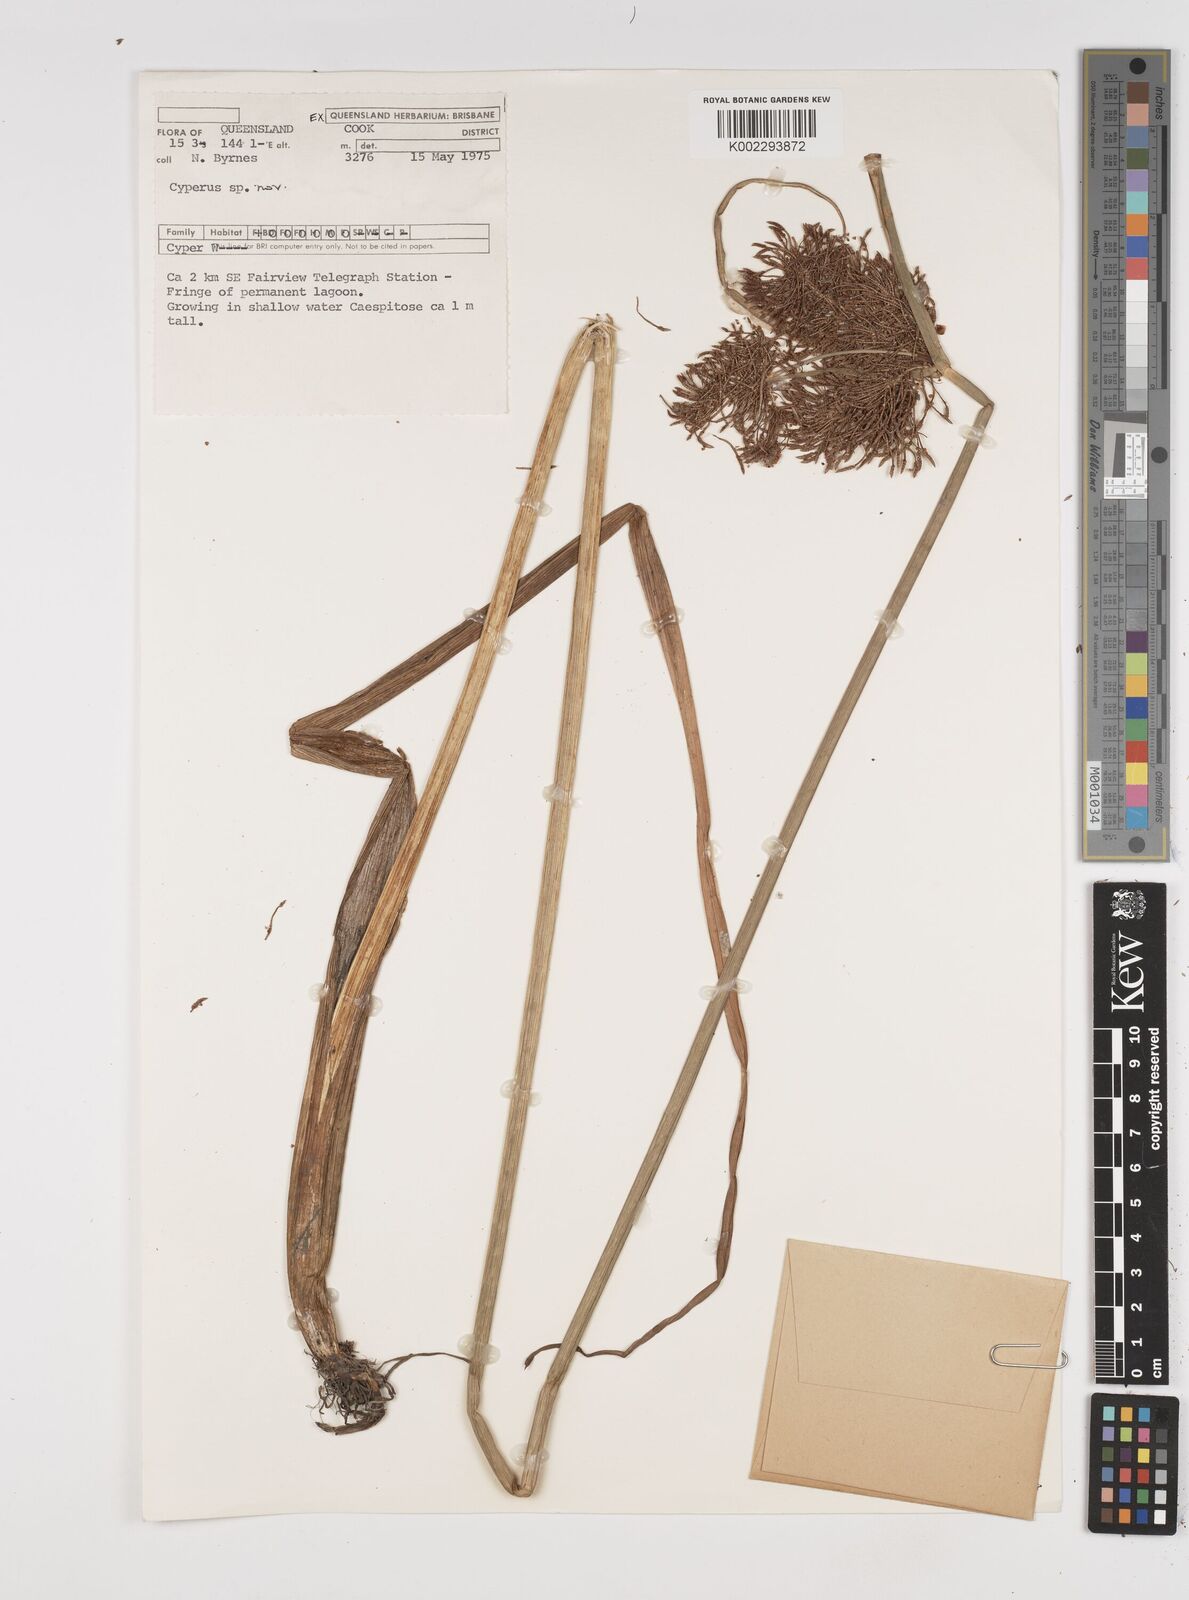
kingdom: Plantae
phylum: Tracheophyta
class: Liliopsida
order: Poales
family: Cyperaceae
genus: Cyperus
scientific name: Cyperus
